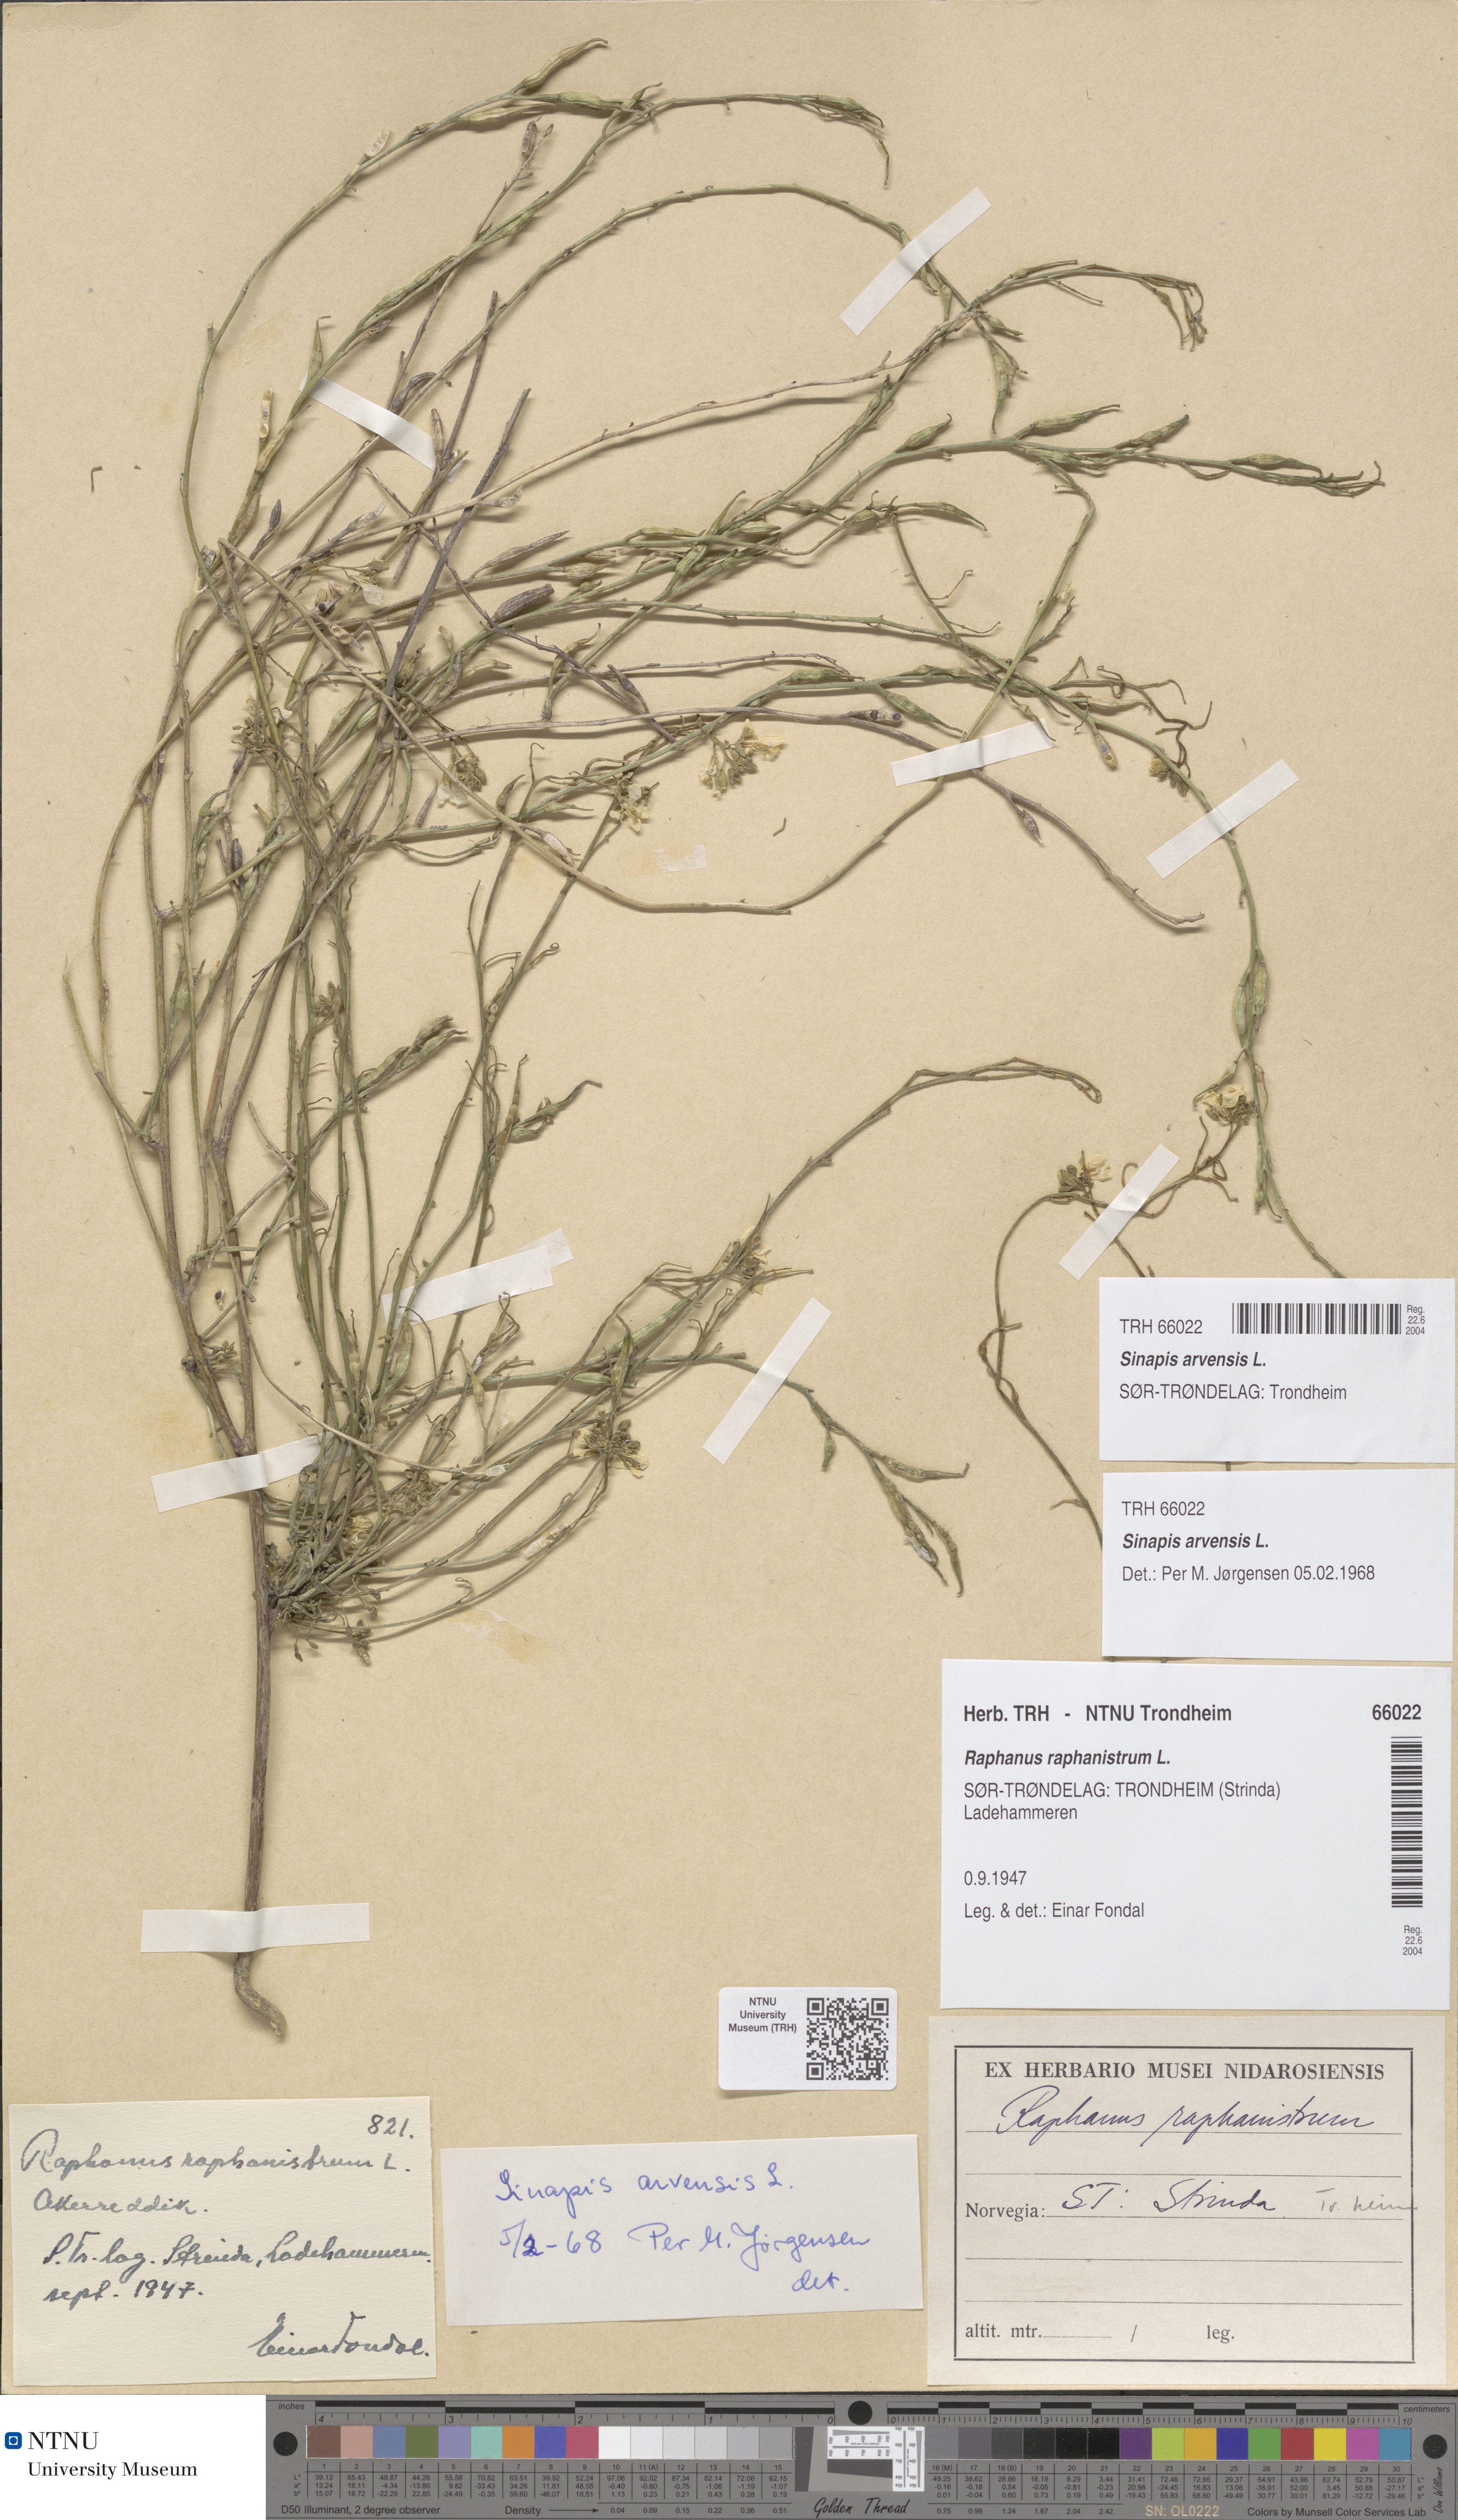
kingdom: Plantae
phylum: Tracheophyta
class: Magnoliopsida
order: Brassicales
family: Brassicaceae
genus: Sinapis
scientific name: Sinapis arvensis
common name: Charlock
